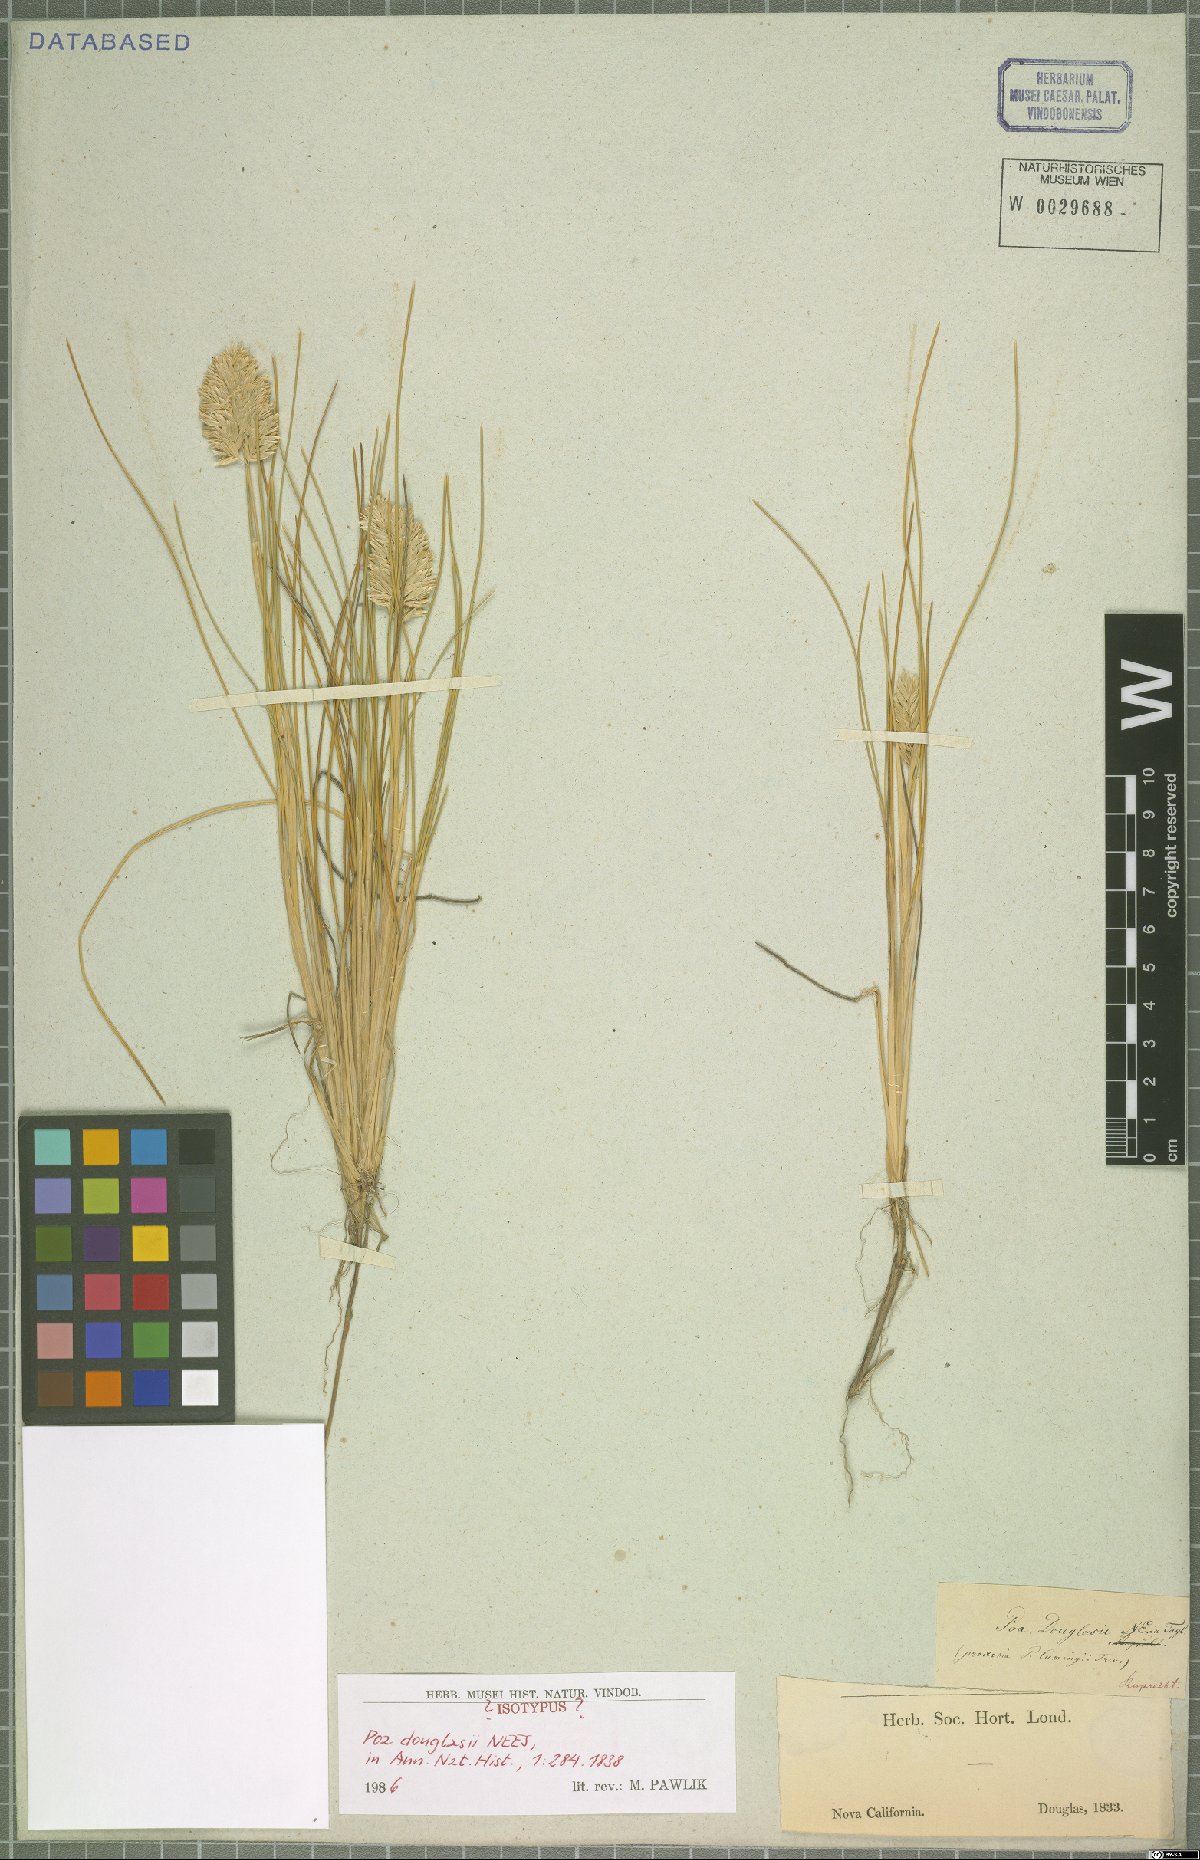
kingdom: Plantae
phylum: Tracheophyta
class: Liliopsida
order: Poales
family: Poaceae
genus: Poa
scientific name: Poa douglasii
